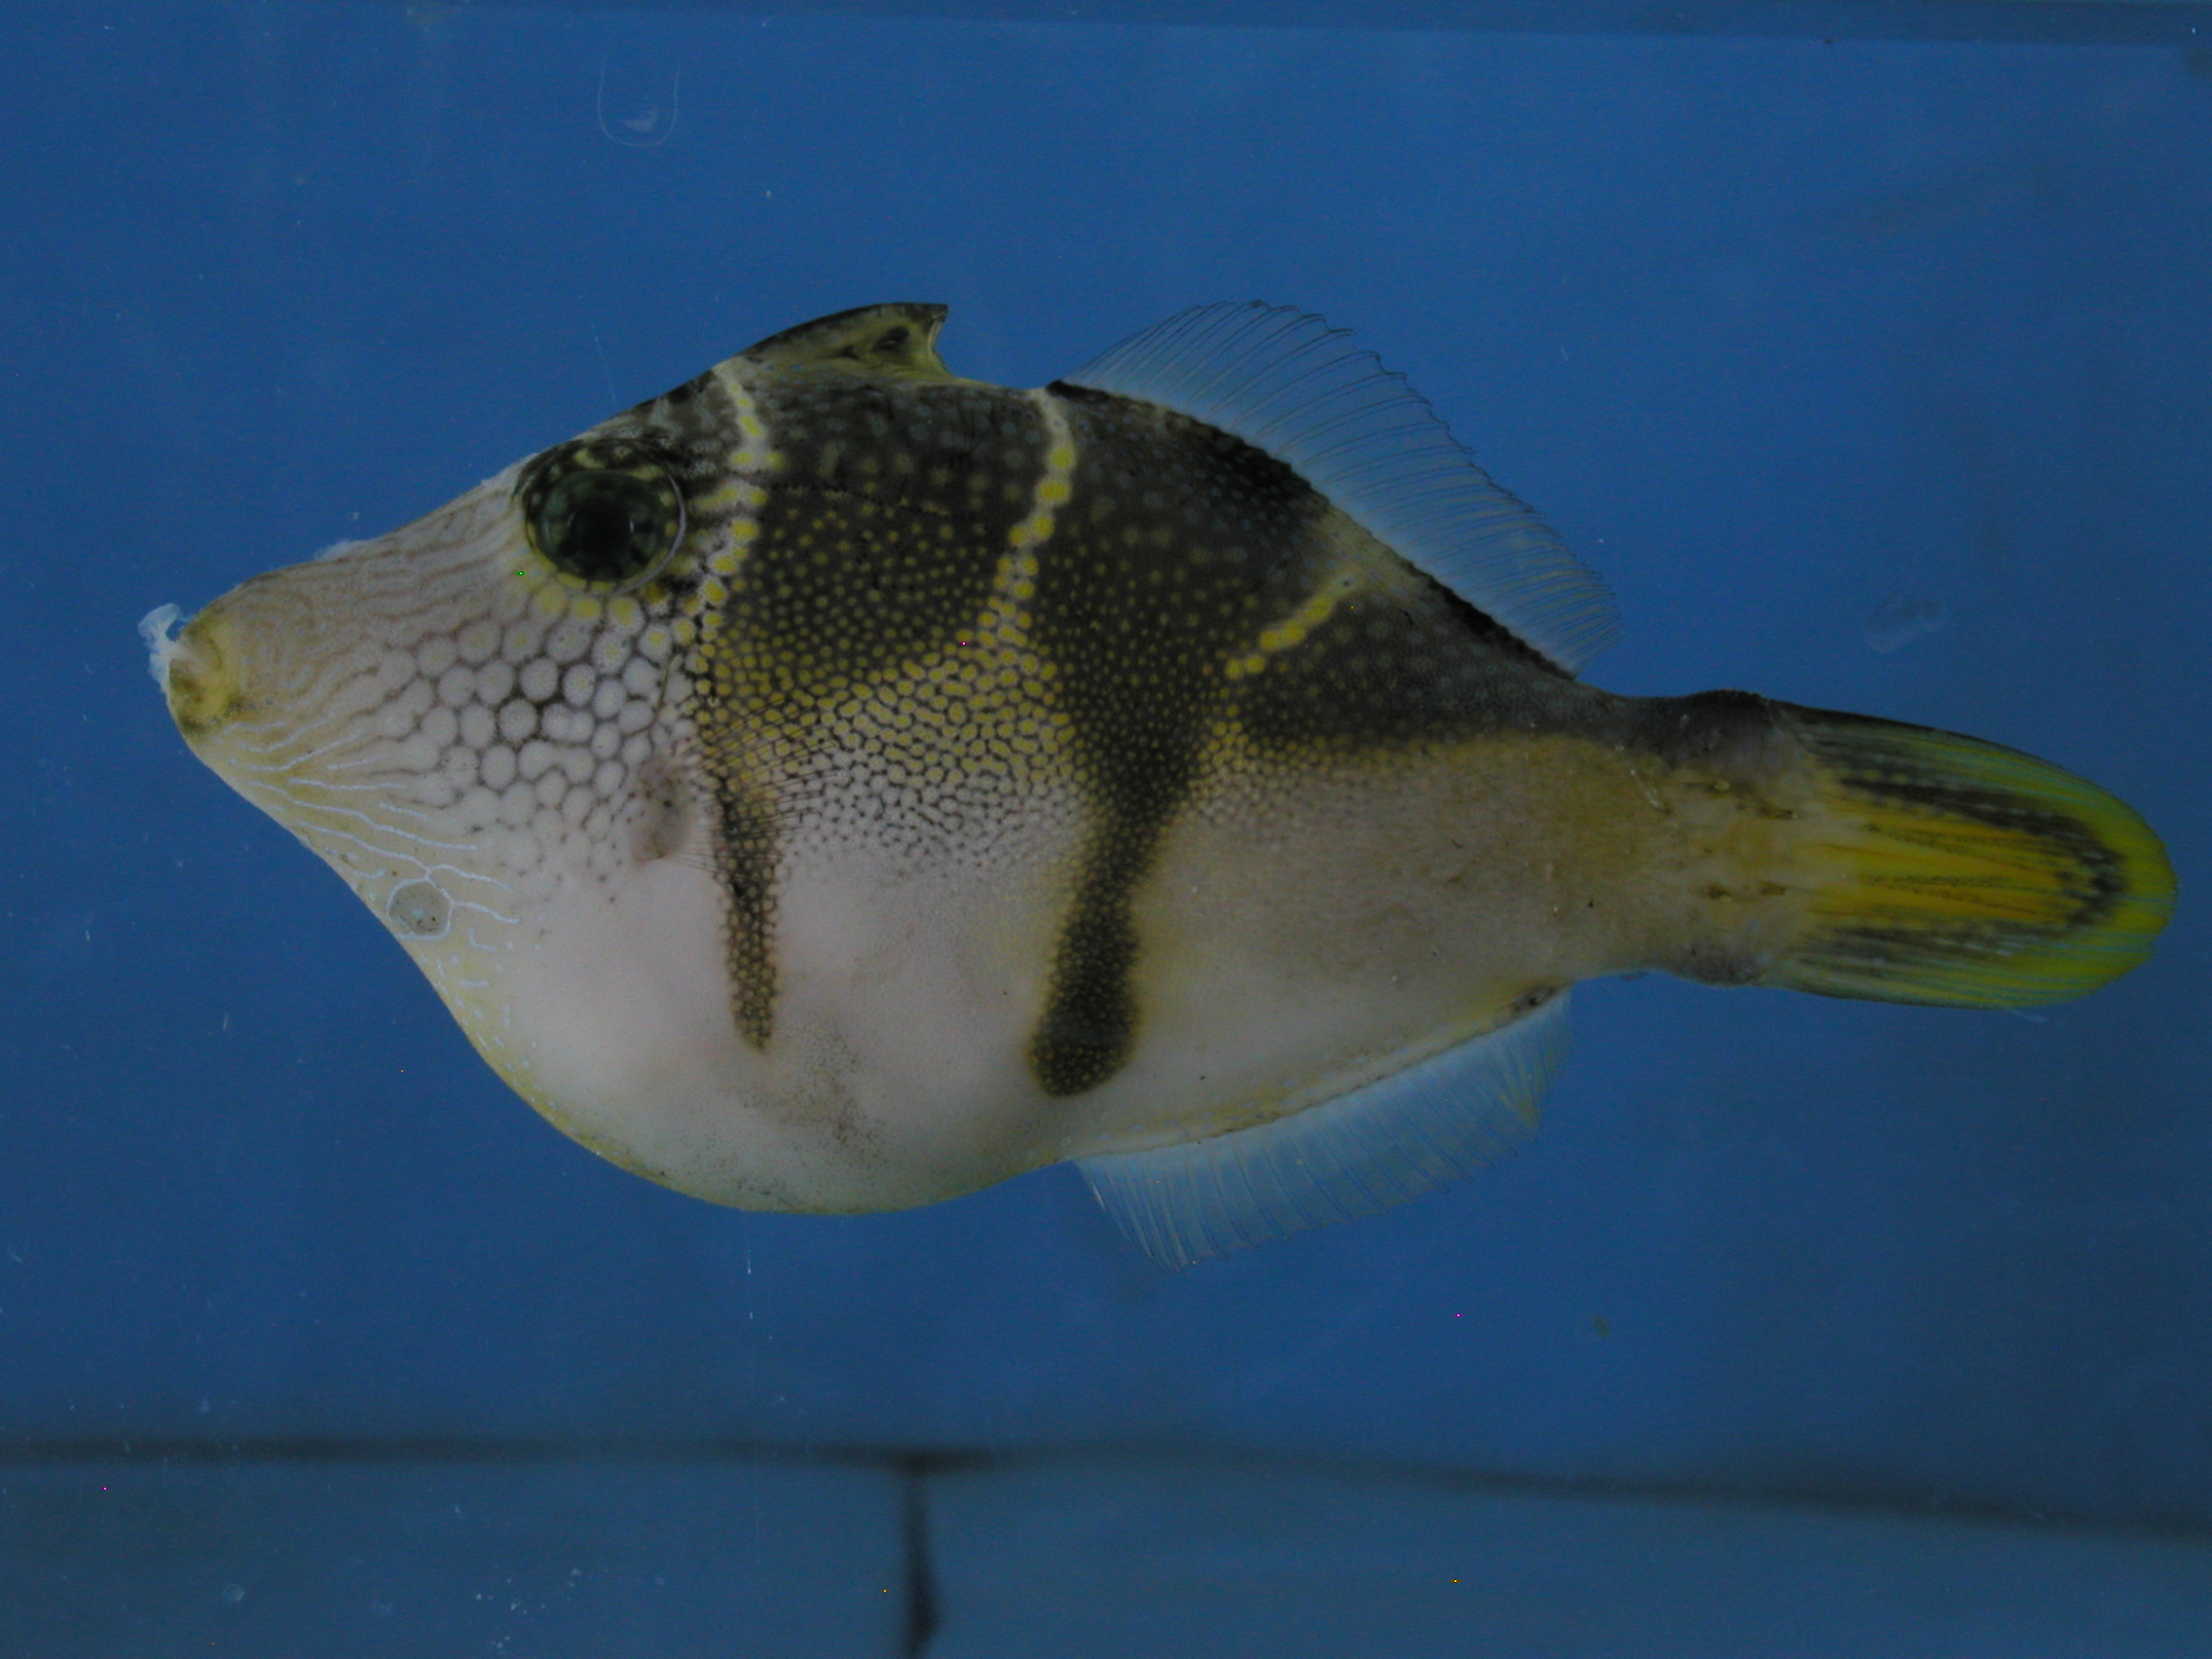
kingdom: Animalia
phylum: Chordata
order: Tetraodontiformes
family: Monacanthidae
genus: Paraluteres
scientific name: Paraluteres prionurus
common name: Black-saddled leatherjacket
